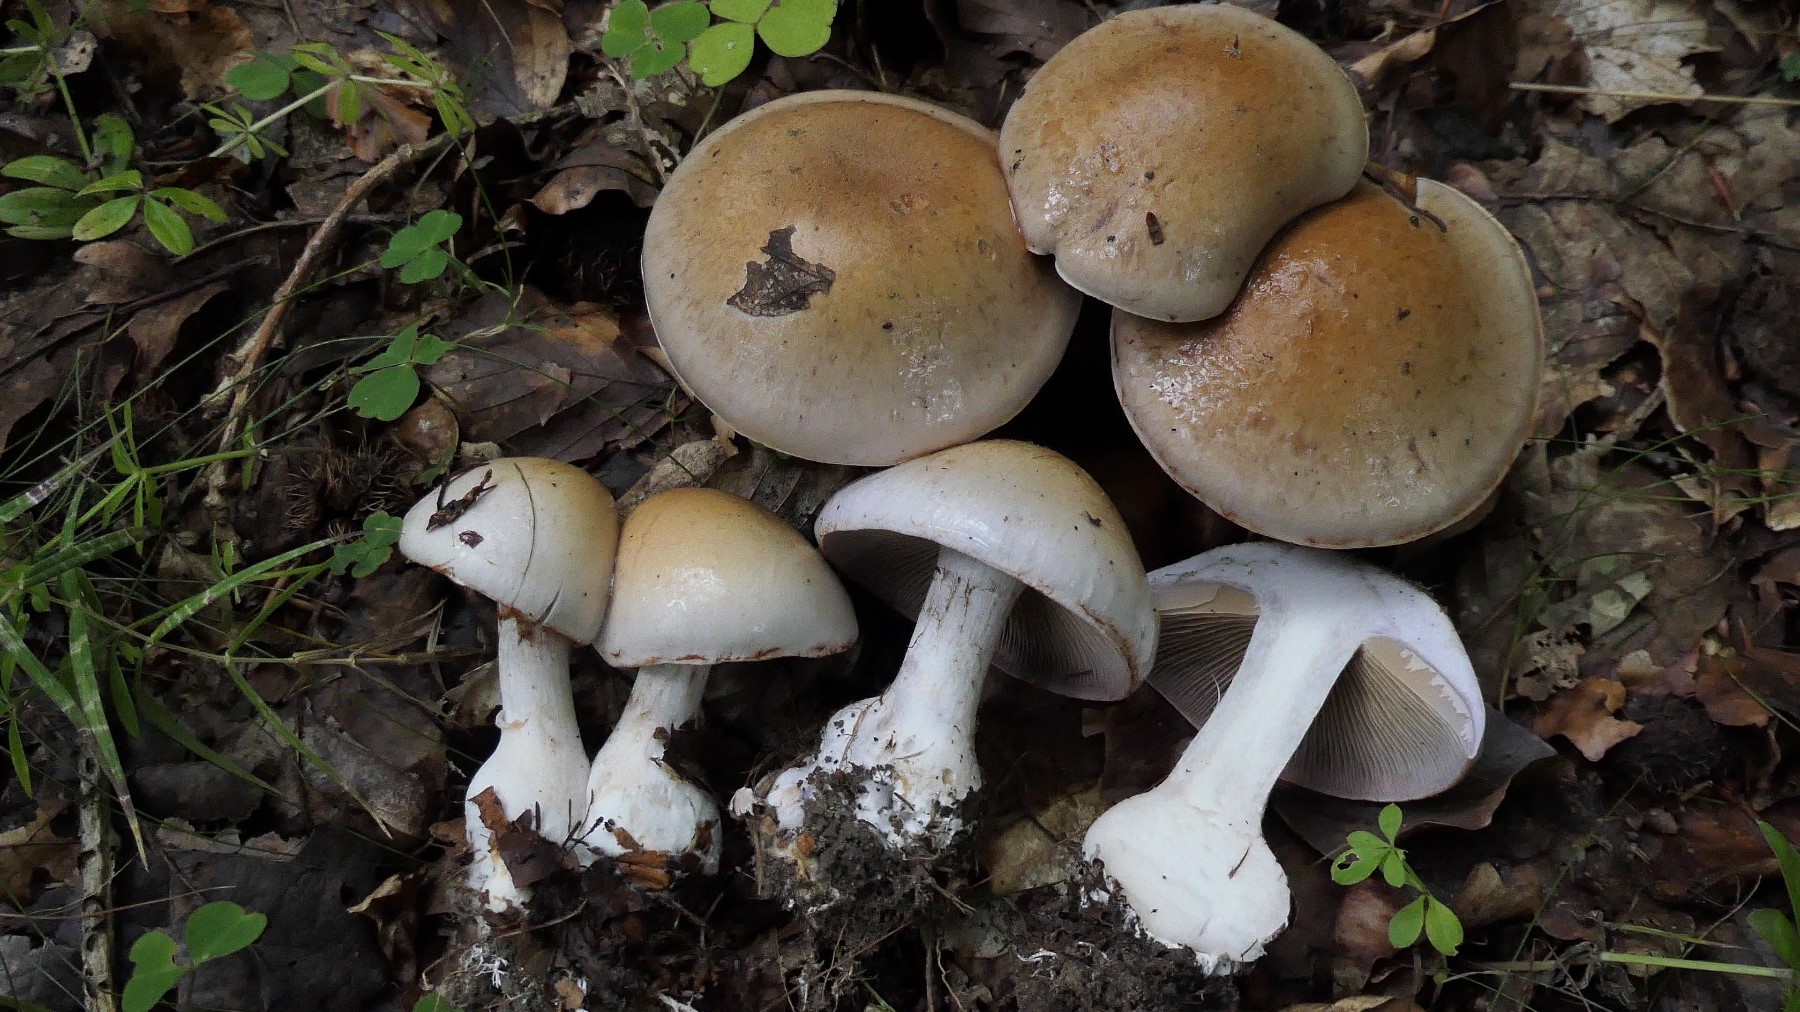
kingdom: Fungi
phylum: Basidiomycota
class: Agaricomycetes
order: Agaricales
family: Cortinariaceae
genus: Cortinarius
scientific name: Cortinarius largus
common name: violetrandet slørhat
